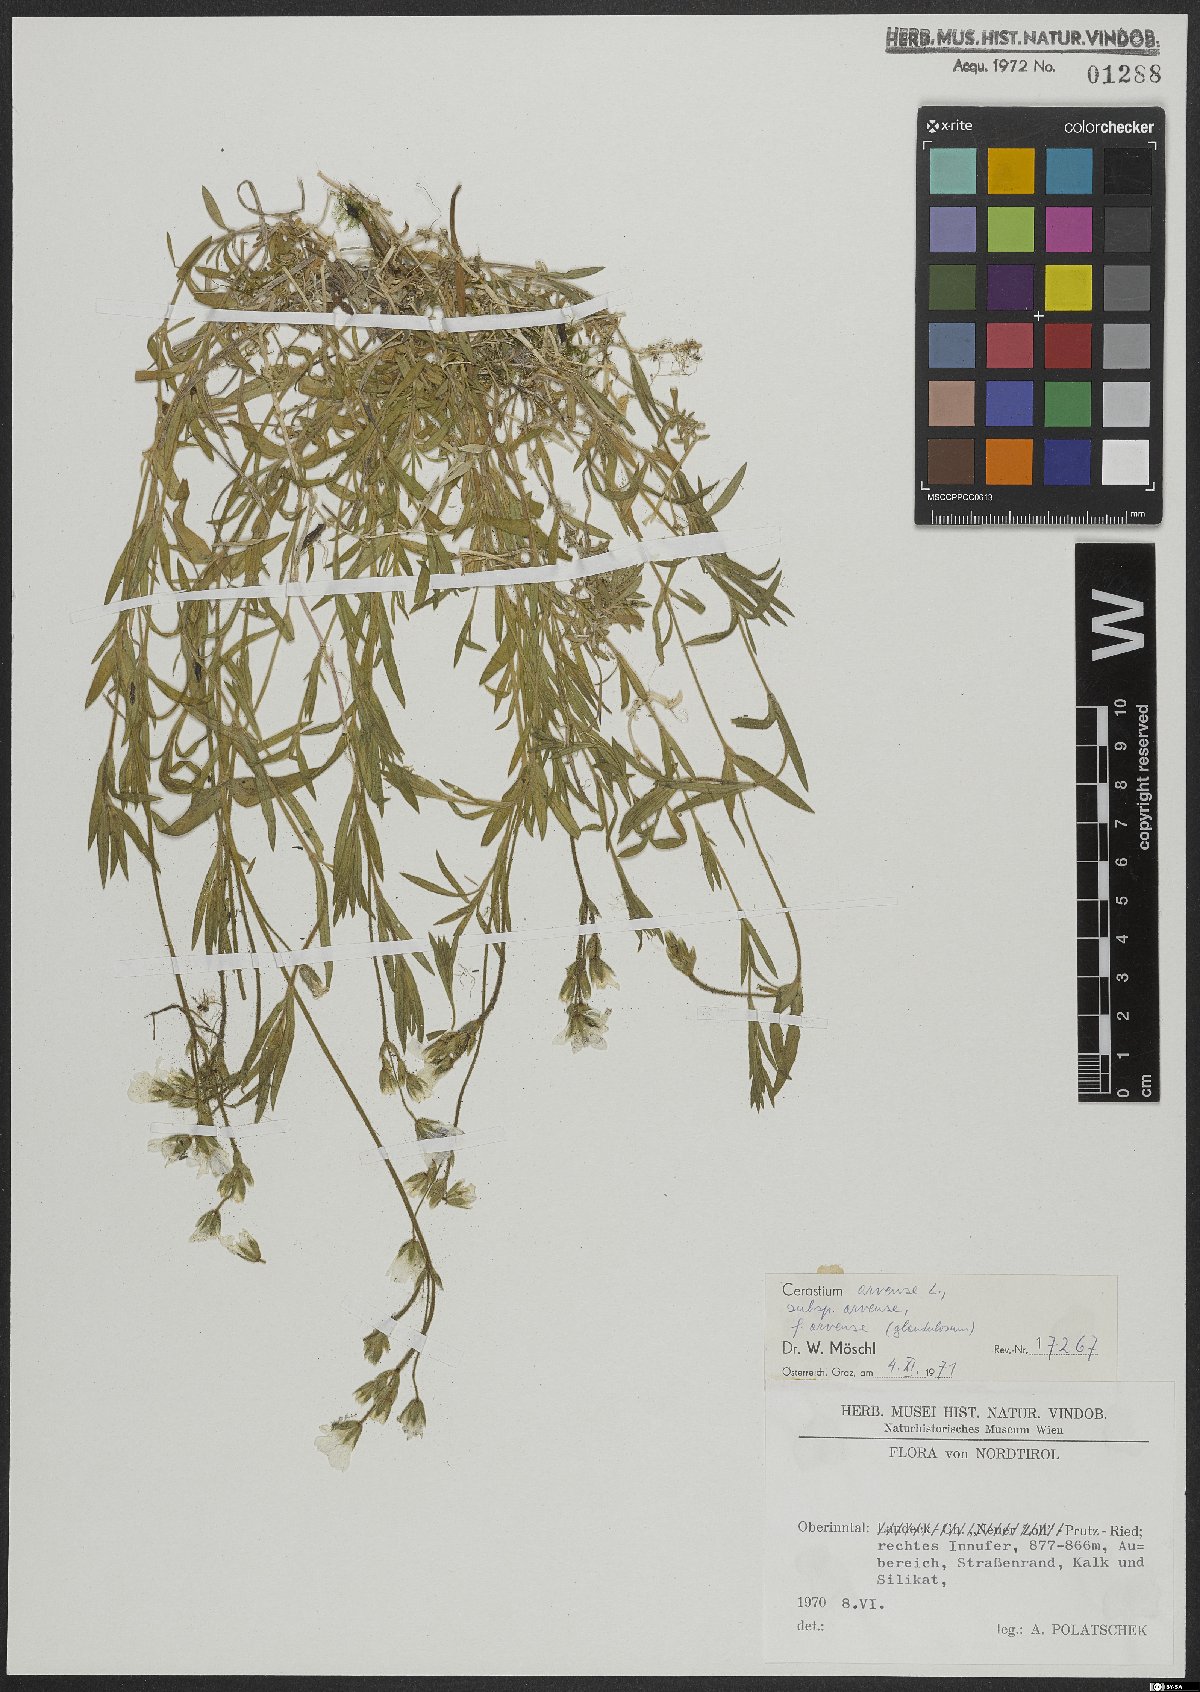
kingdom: Plantae
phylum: Tracheophyta
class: Magnoliopsida
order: Caryophyllales
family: Caryophyllaceae
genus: Cerastium
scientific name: Cerastium arvense
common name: Field mouse-ear
